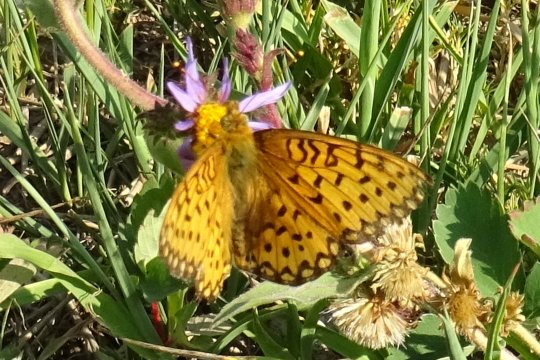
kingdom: Animalia
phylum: Arthropoda
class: Insecta
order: Lepidoptera
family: Nymphalidae
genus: Speyeria
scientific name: Speyeria mormonia
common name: Mormon Fritillary
